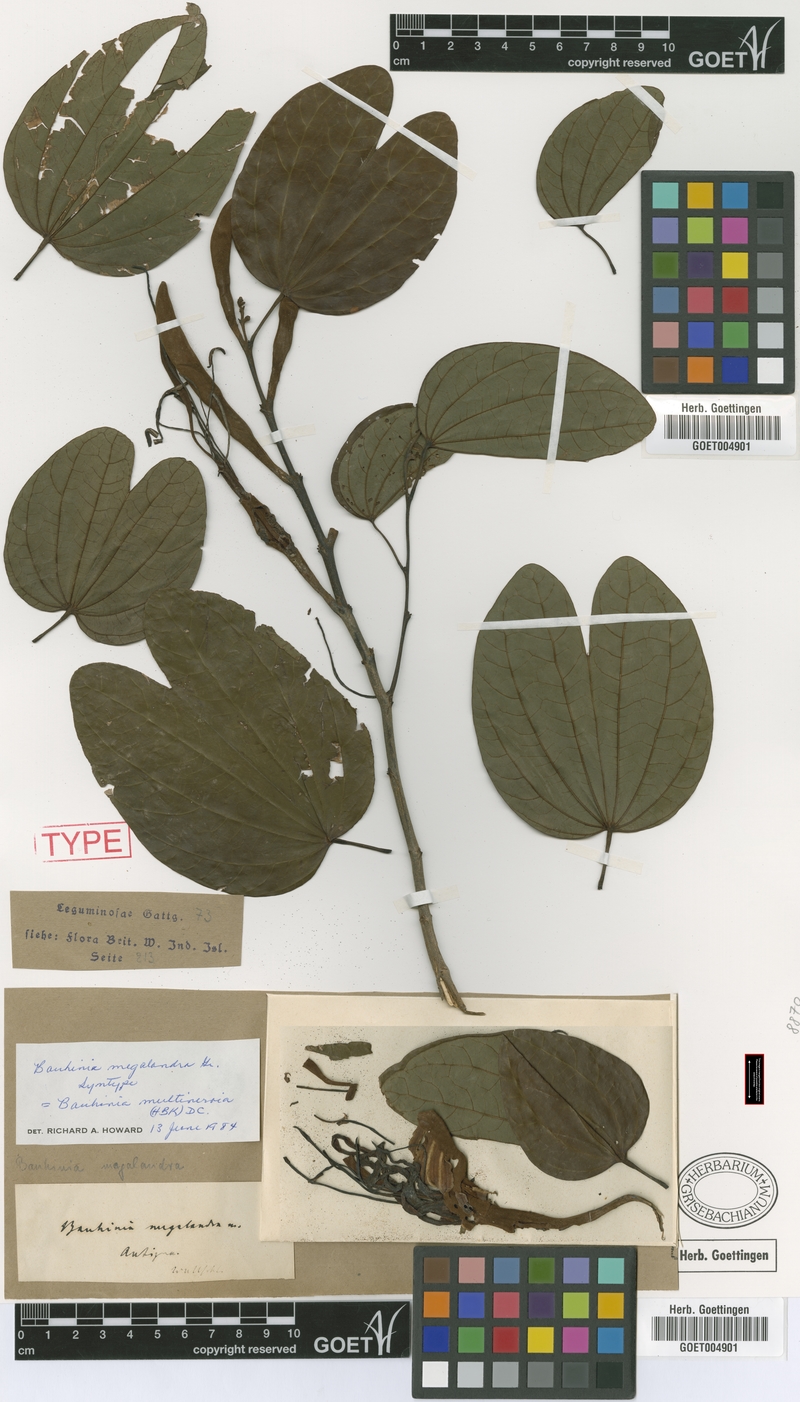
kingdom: Plantae
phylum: Tracheophyta
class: Magnoliopsida
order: Fabales
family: Fabaceae
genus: Bauhinia
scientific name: Bauhinia multinervia
